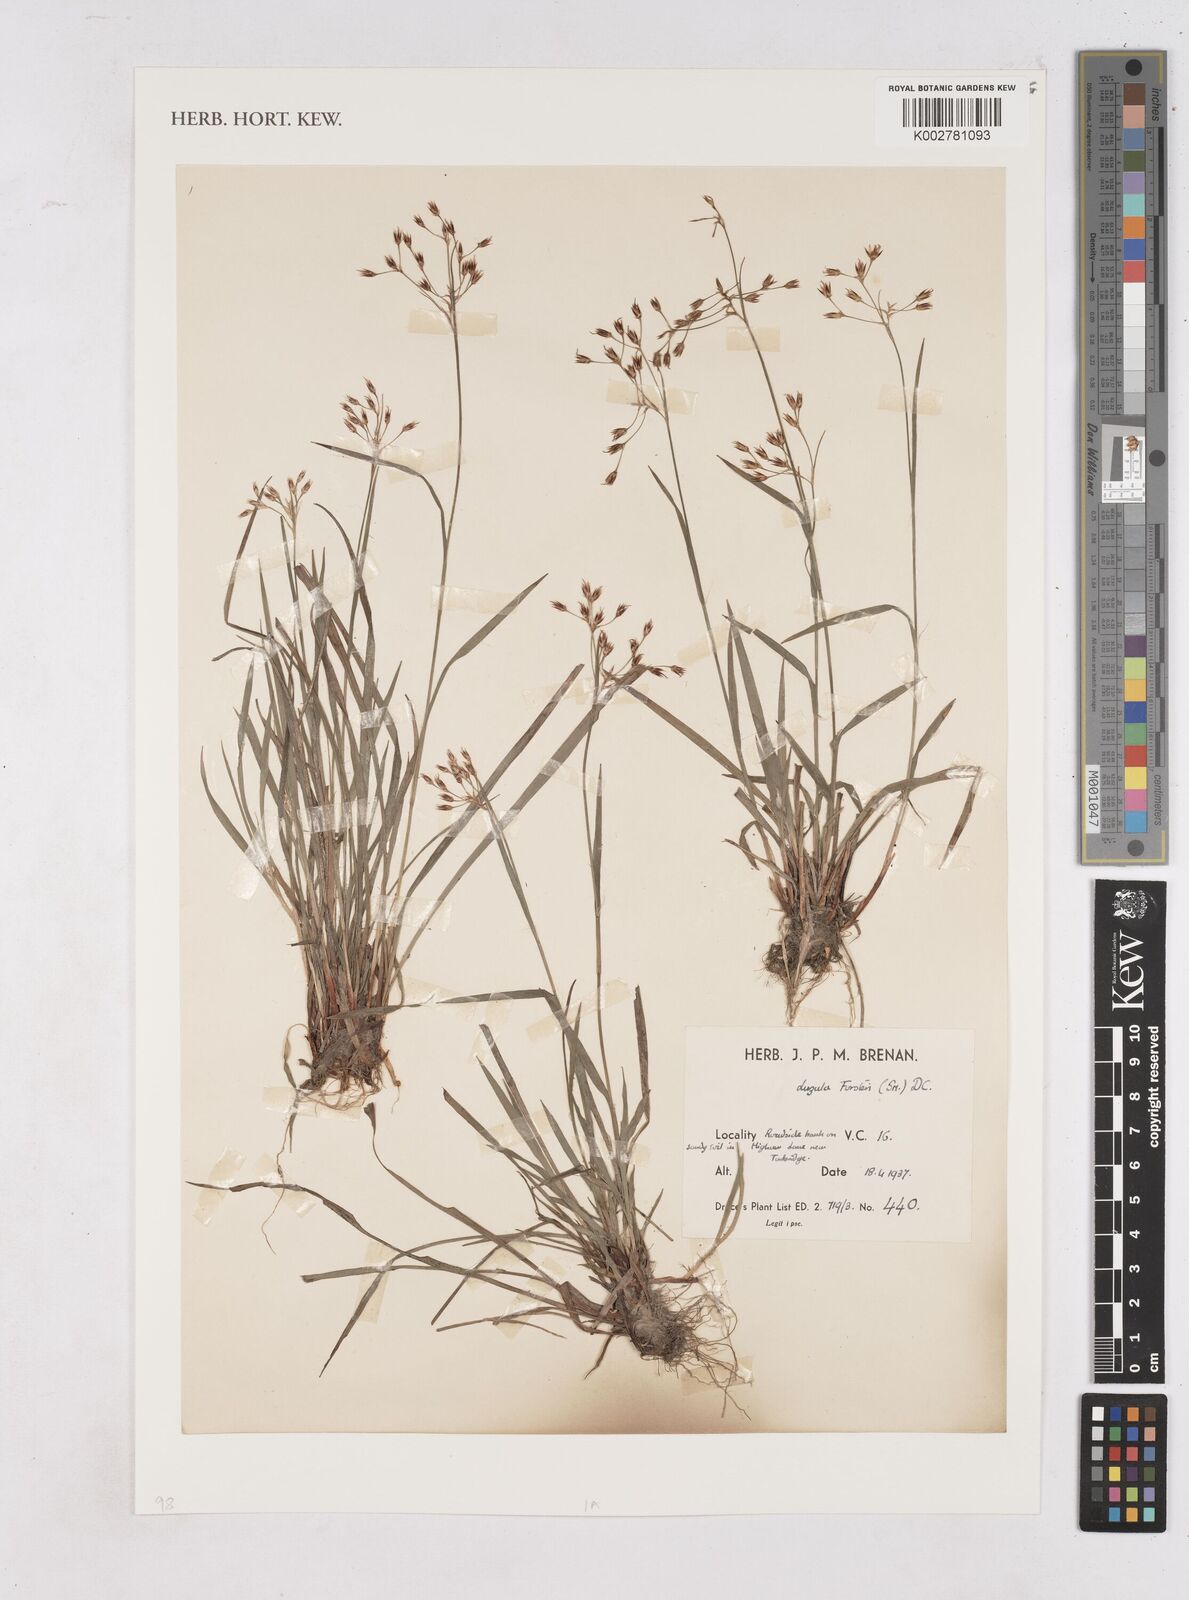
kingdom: Plantae
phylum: Tracheophyta
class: Liliopsida
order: Poales
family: Juncaceae
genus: Luzula
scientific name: Luzula forsteri
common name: Southern wood-rush
